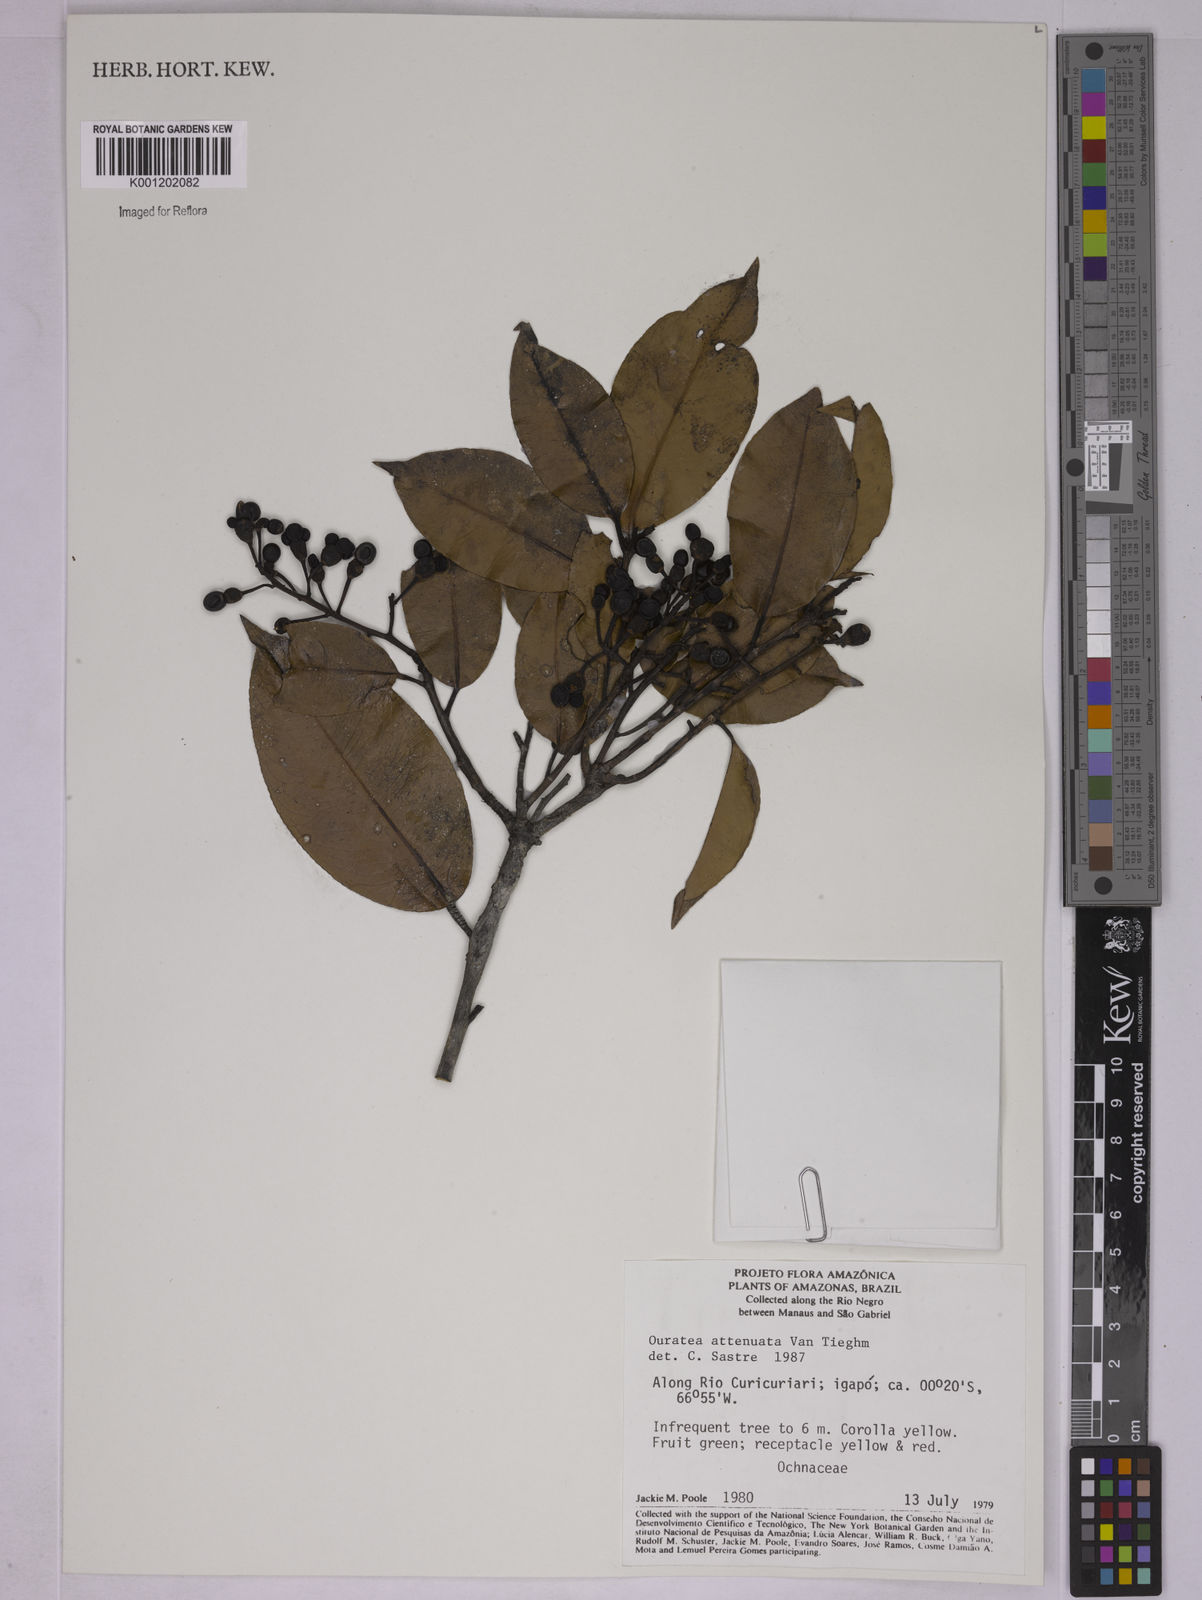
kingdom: Plantae
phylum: Tracheophyta
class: Magnoliopsida
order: Malpighiales
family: Ochnaceae
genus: Ouratea
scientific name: Ouratea attenuata
